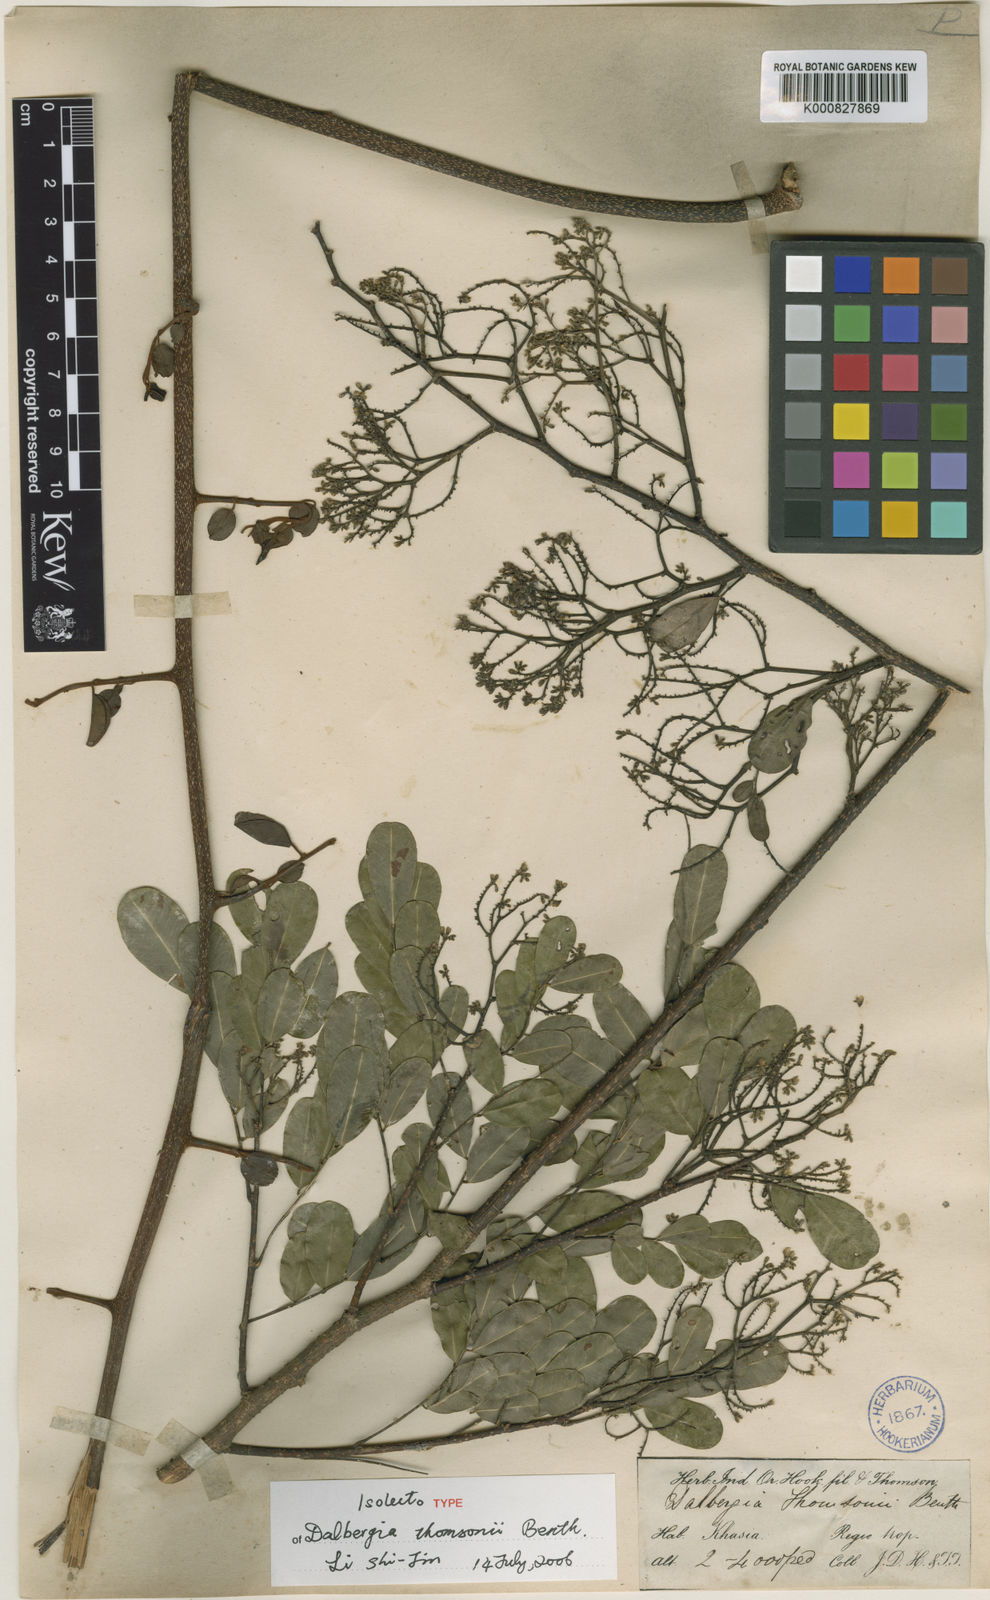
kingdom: Plantae
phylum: Tracheophyta
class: Magnoliopsida
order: Fabales
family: Fabaceae
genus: Dalbergia
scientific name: Dalbergia thomsonii
